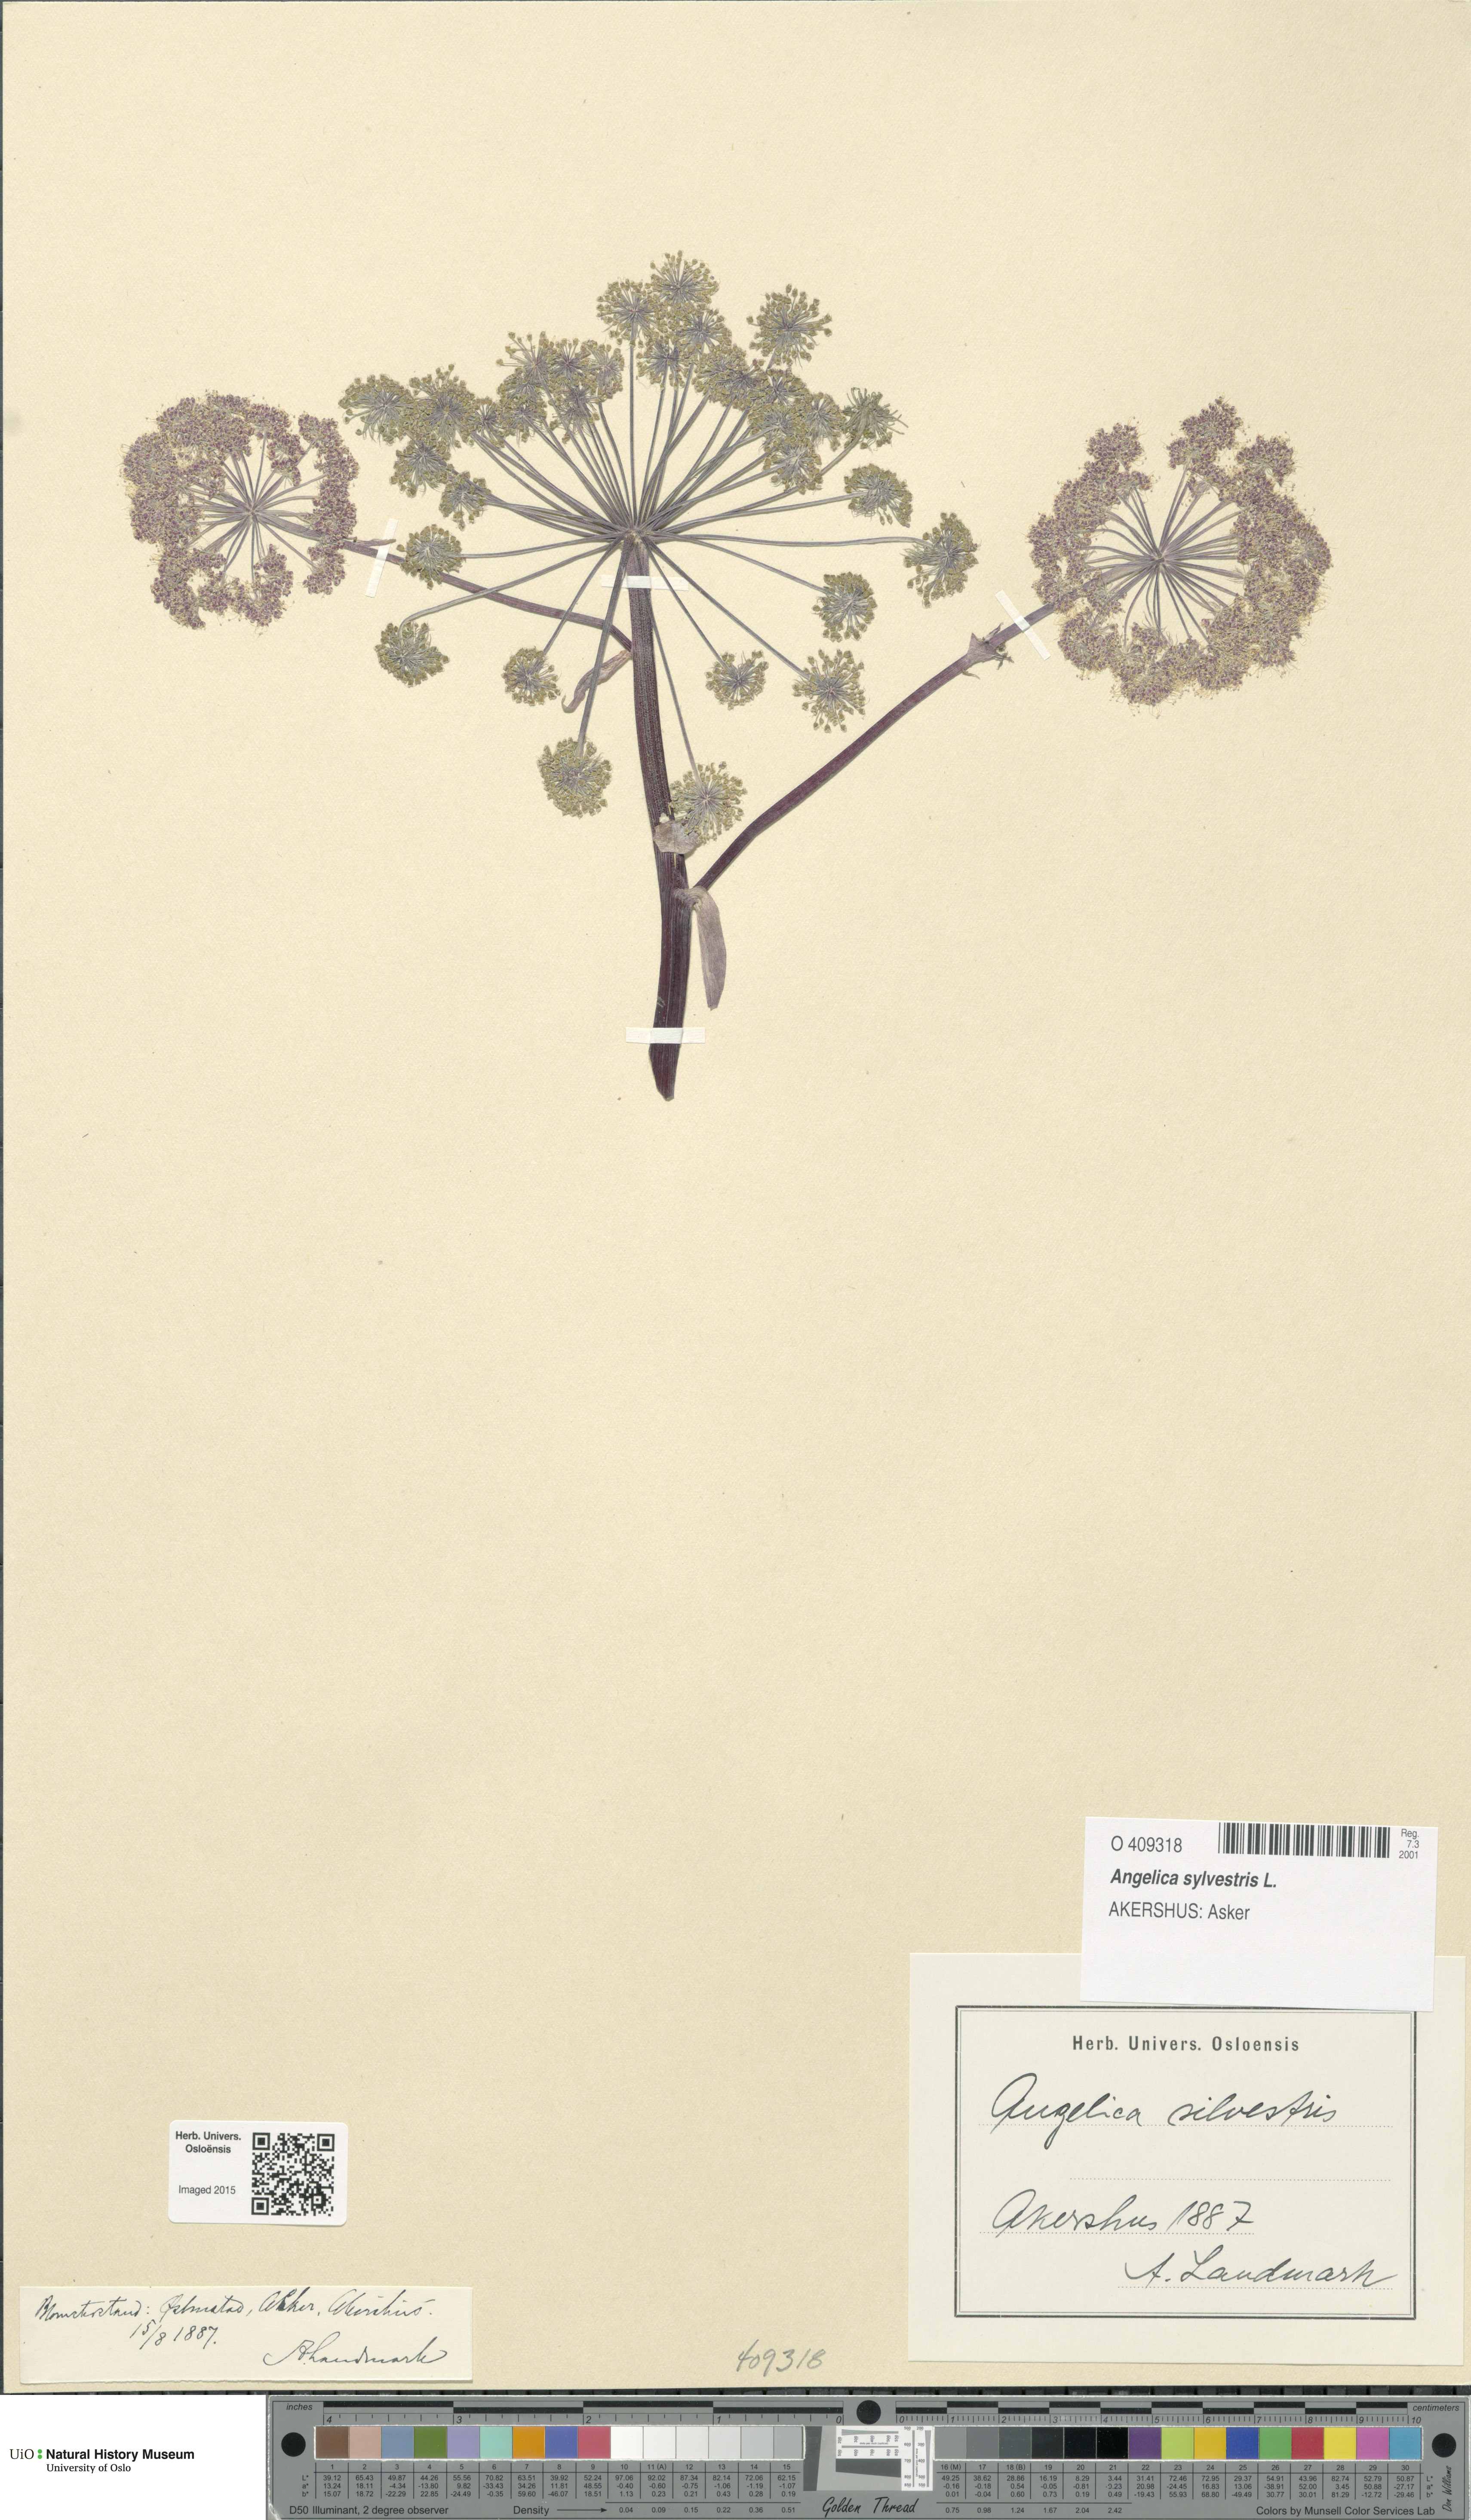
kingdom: Plantae
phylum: Tracheophyta
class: Magnoliopsida
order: Apiales
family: Apiaceae
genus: Angelica
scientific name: Angelica sylvestris
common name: Wild angelica
